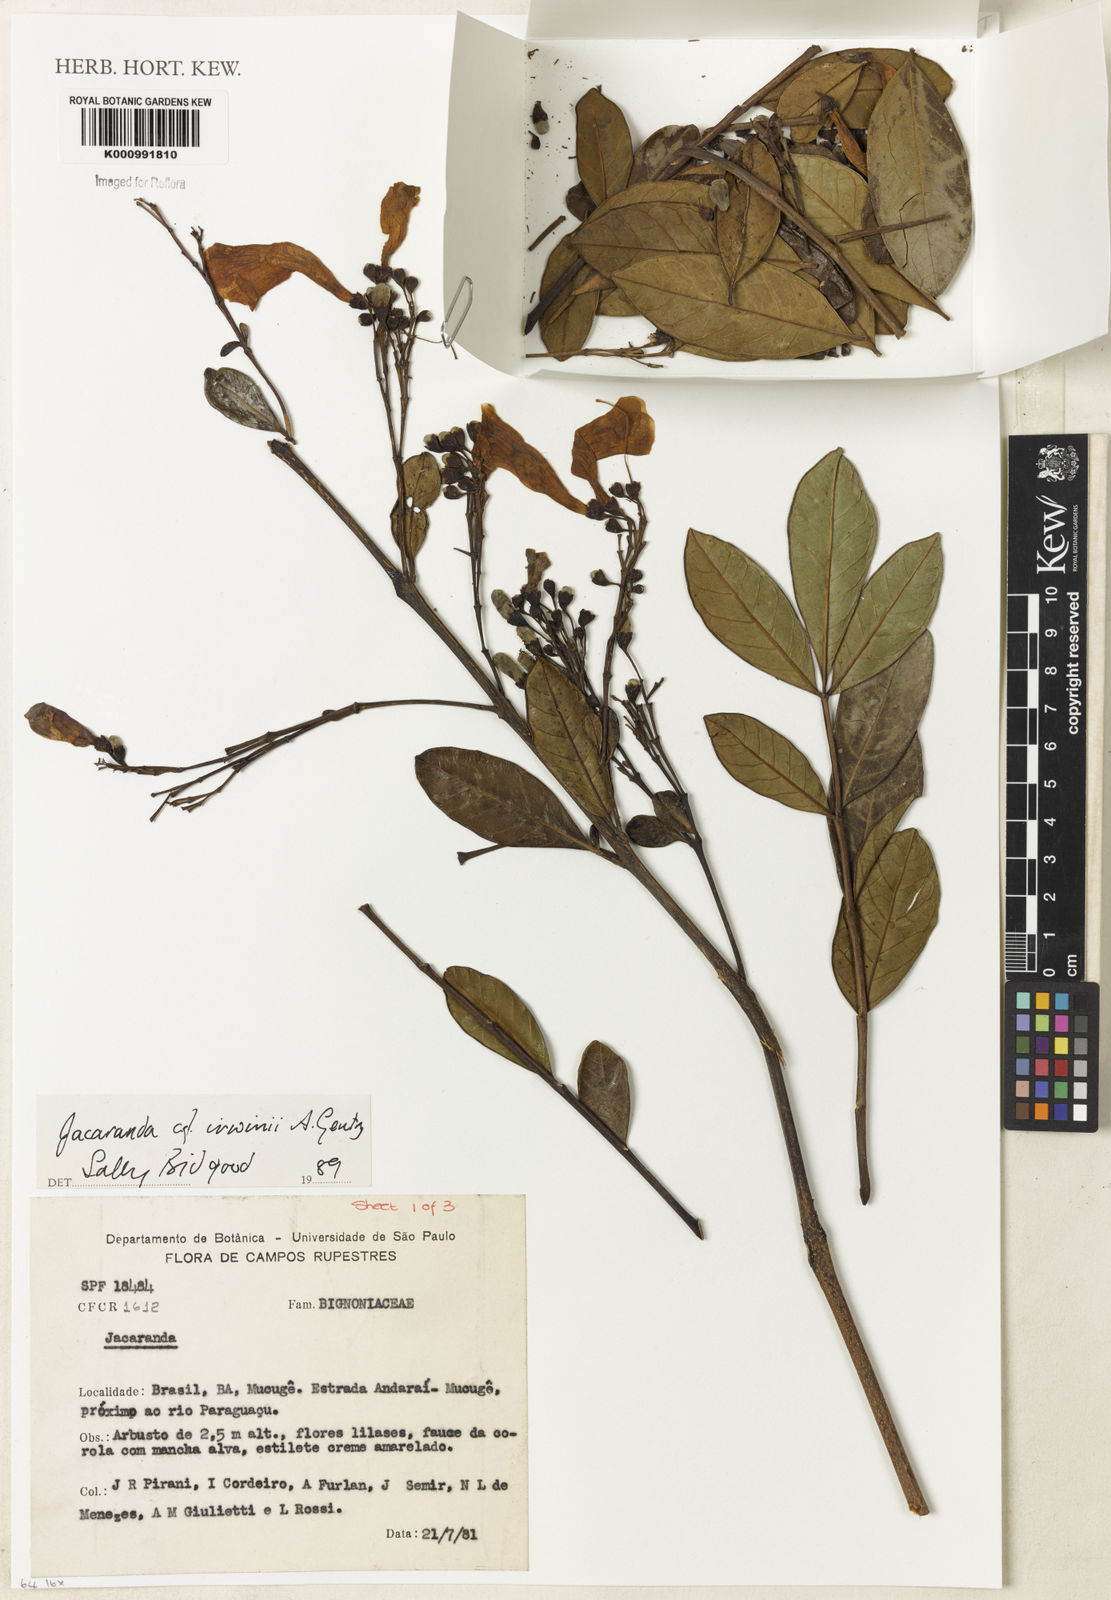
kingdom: Plantae
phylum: Tracheophyta
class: Magnoliopsida
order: Lamiales
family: Bignoniaceae
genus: Jacaranda
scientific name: Jacaranda irwinii
